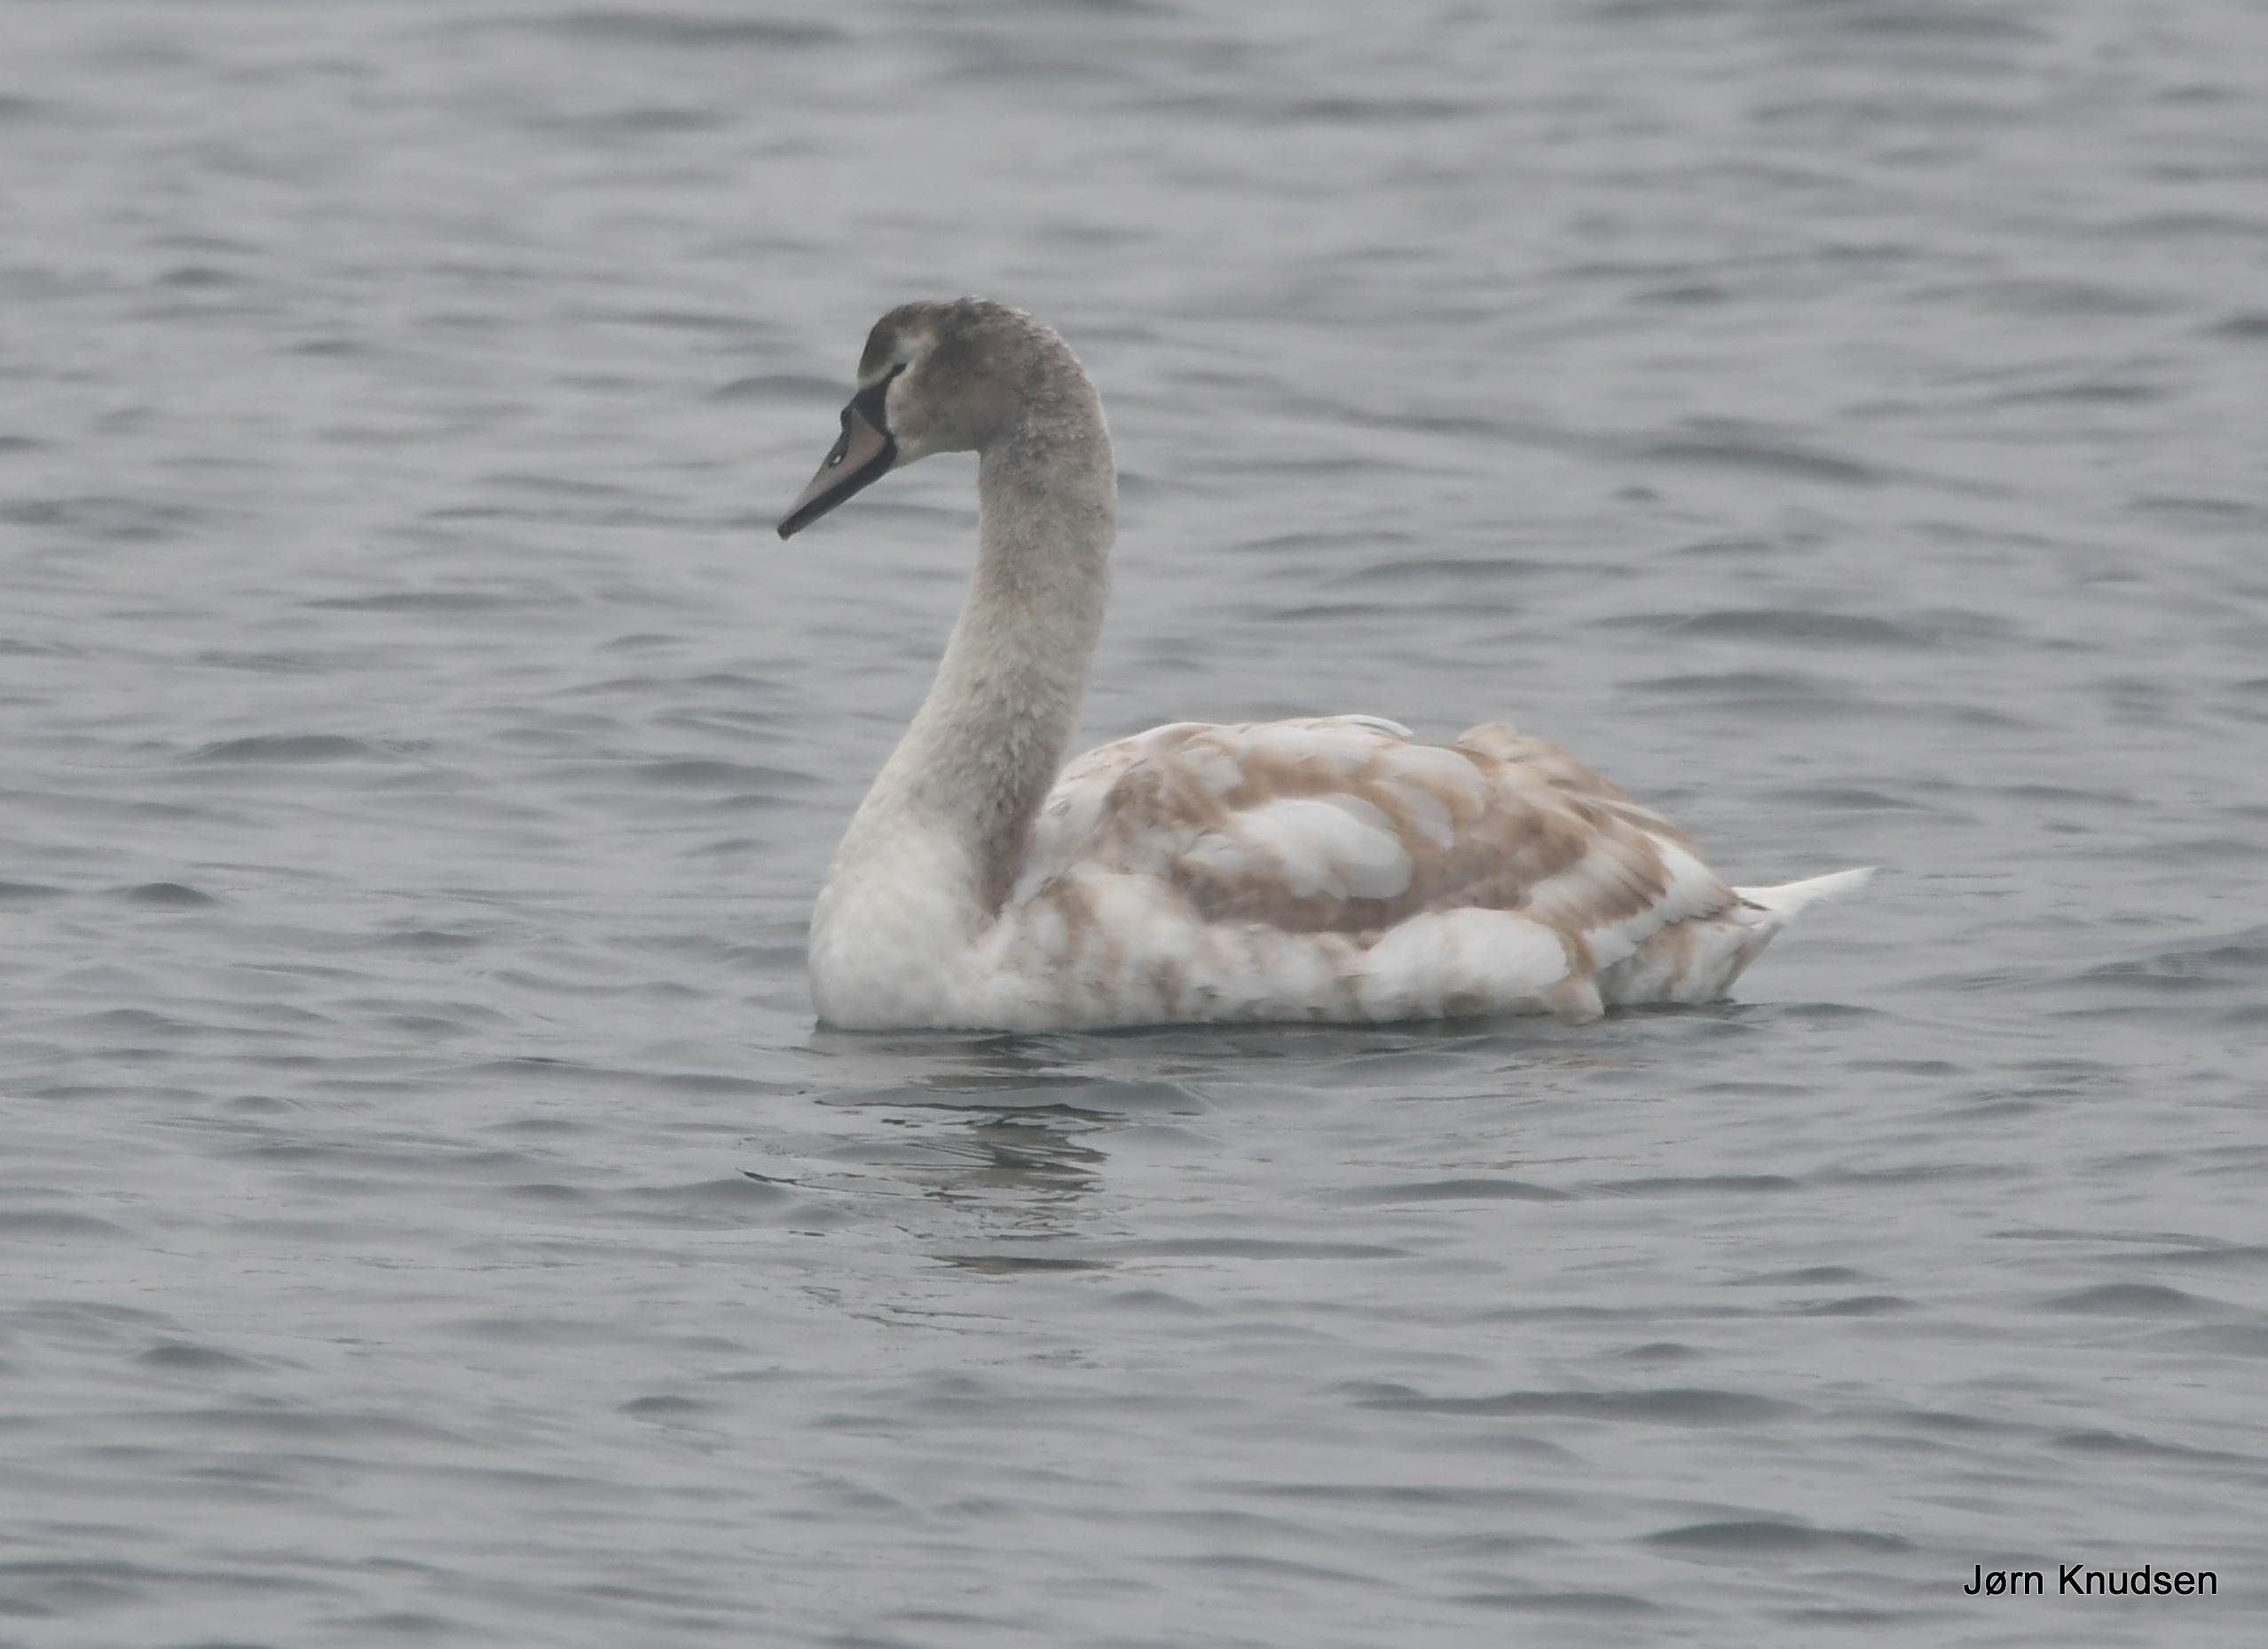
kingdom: Animalia
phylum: Chordata
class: Aves
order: Anseriformes
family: Anatidae
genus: Cygnus
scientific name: Cygnus olor
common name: Knopsvane
